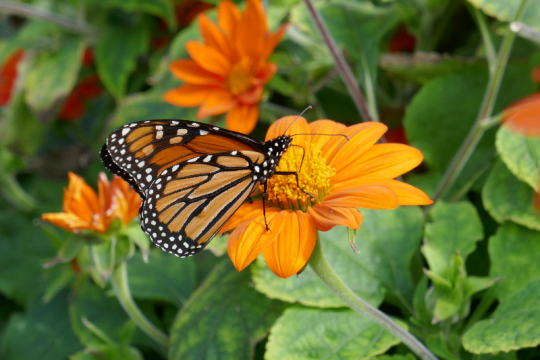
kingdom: Animalia
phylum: Arthropoda
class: Insecta
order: Lepidoptera
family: Nymphalidae
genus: Danaus
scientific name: Danaus plexippus
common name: Monarch
